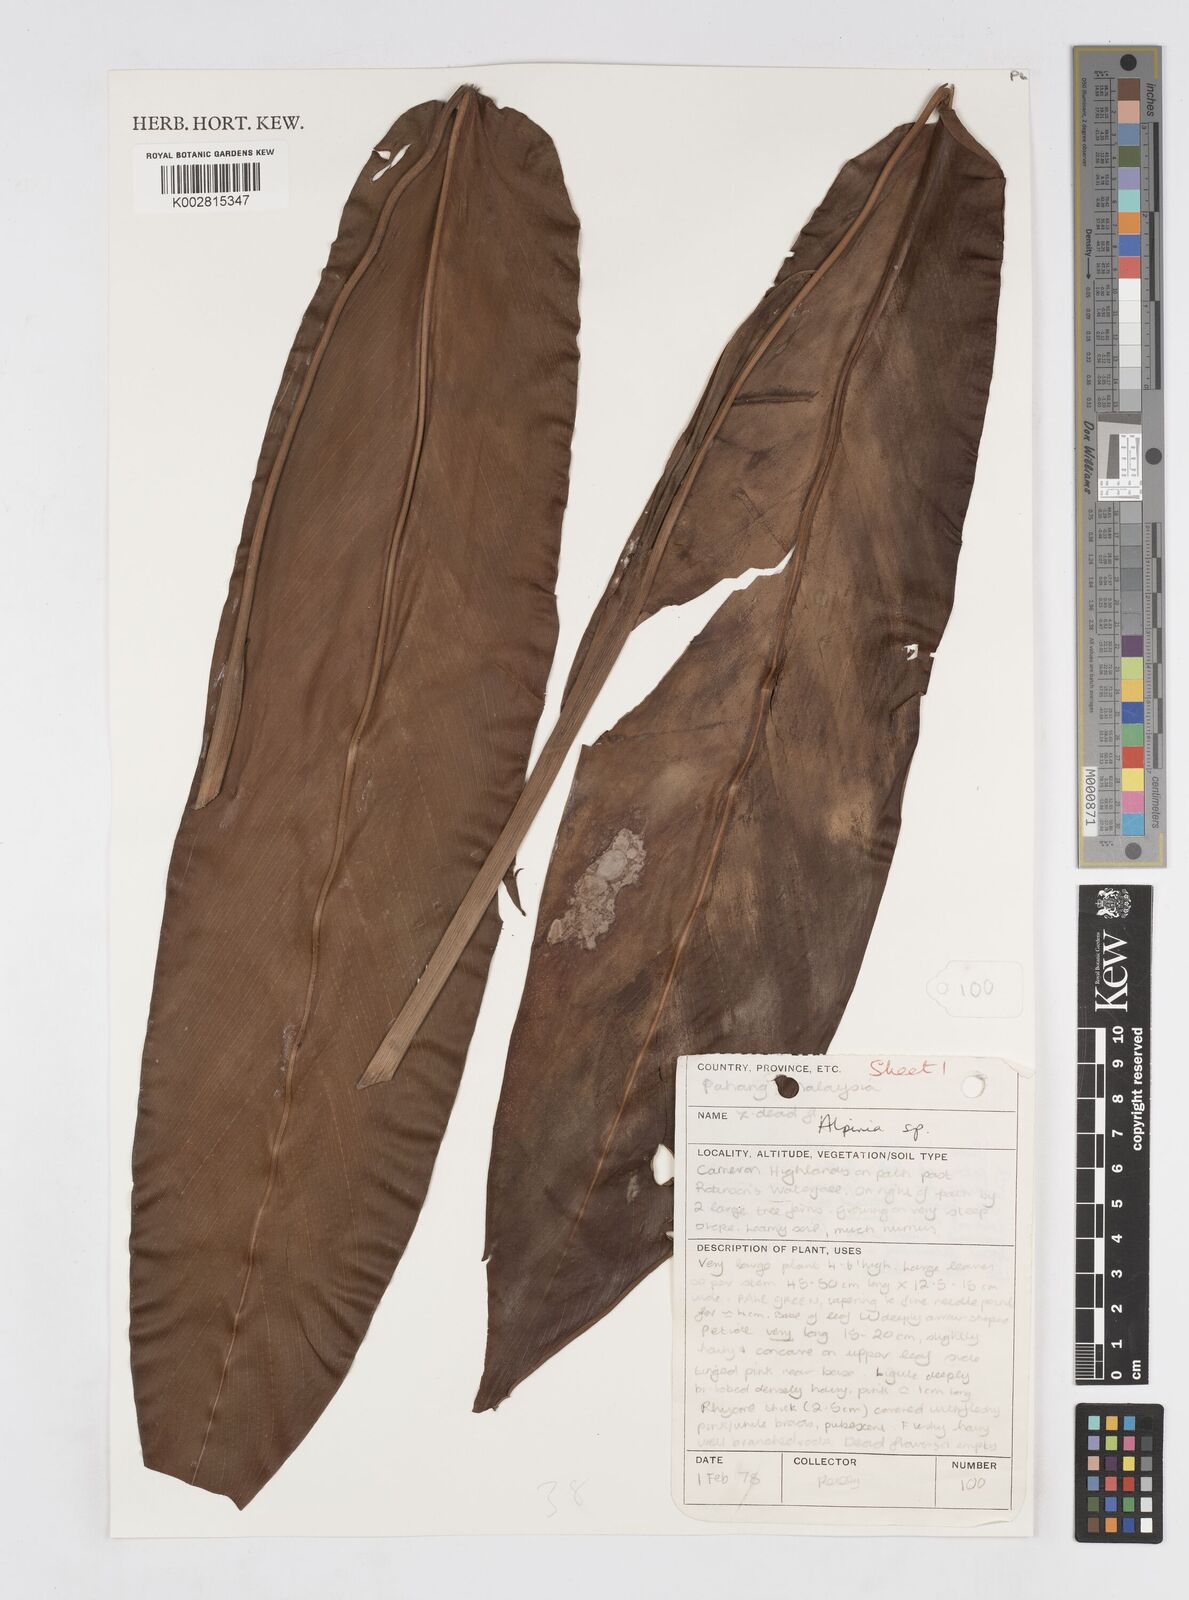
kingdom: Plantae
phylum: Tracheophyta
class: Liliopsida
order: Zingiberales
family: Zingiberaceae
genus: Alpinia
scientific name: Alpinia
